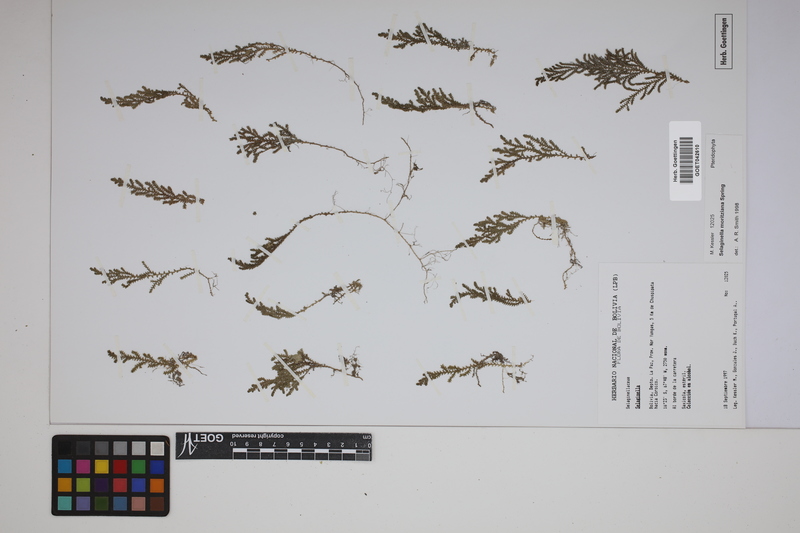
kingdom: Plantae
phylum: Tracheophyta
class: Lycopodiopsida
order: Selaginellales
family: Selaginellaceae
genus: Selaginella
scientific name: Selaginella moritziana
